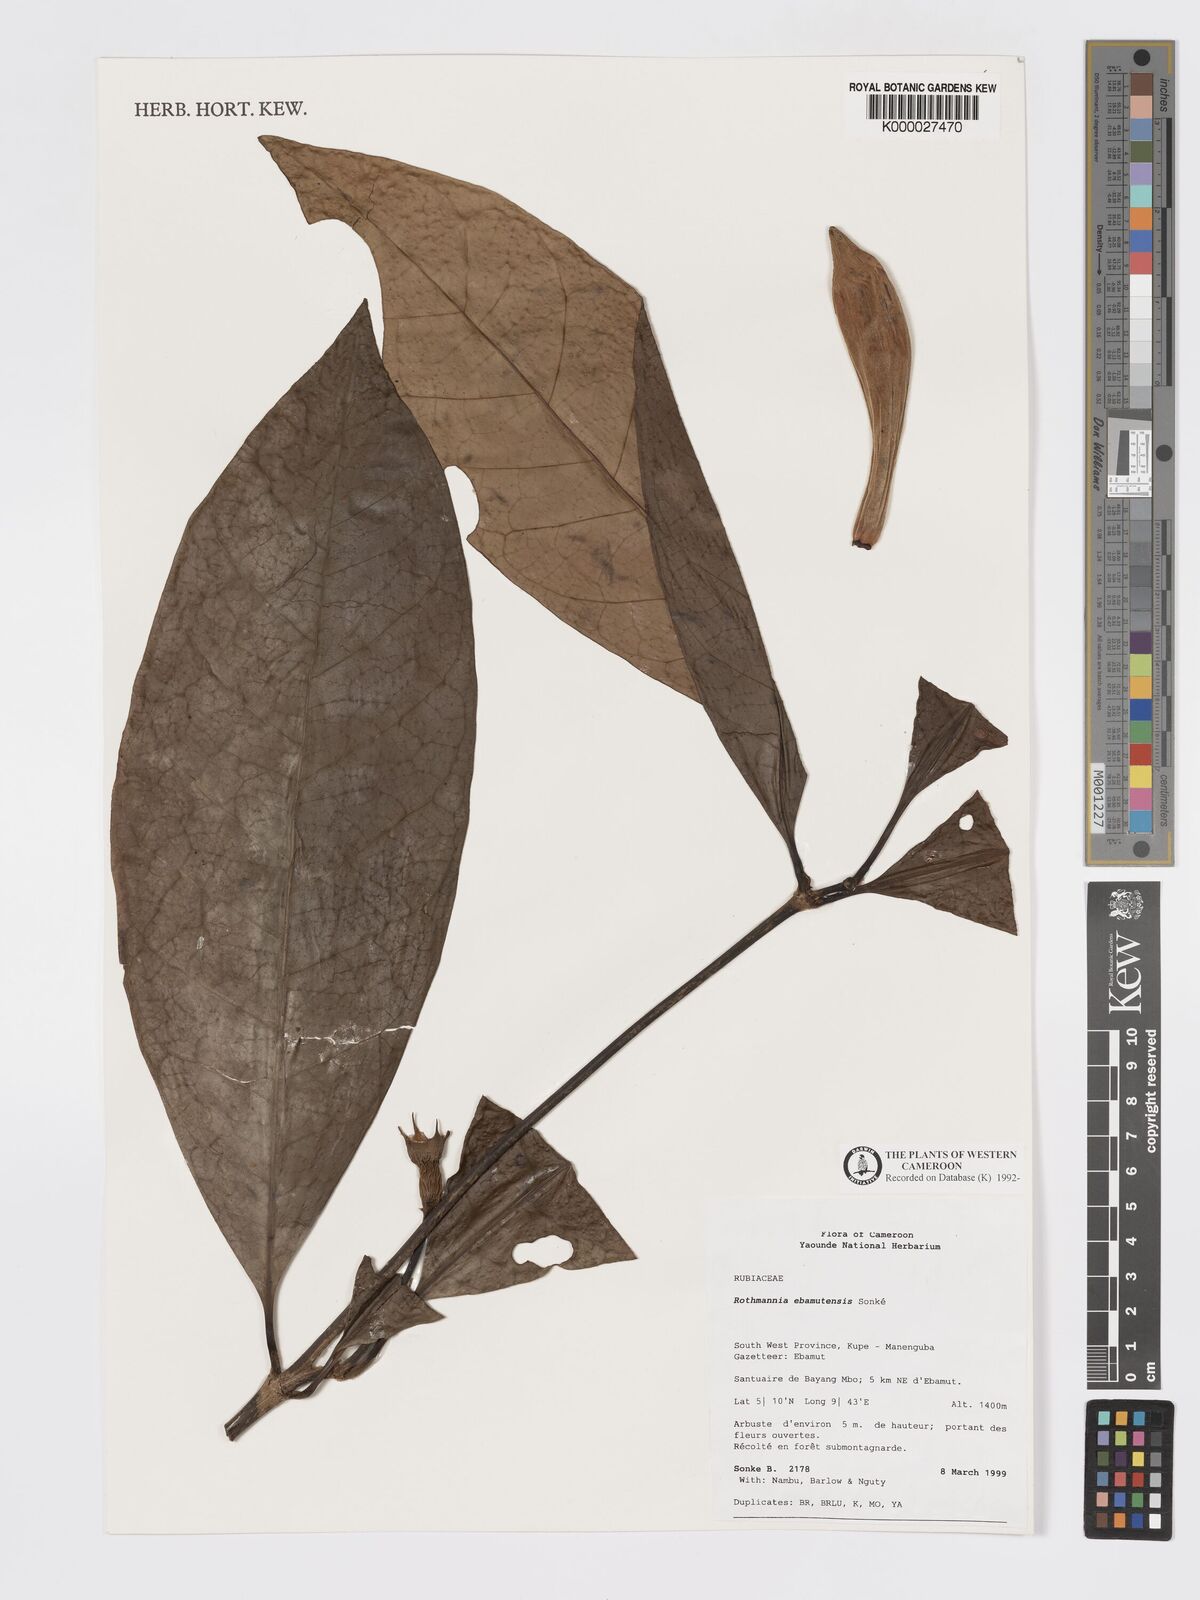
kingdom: Plantae
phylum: Tracheophyta
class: Magnoliopsida
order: Gentianales
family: Rubiaceae
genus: Rothmannia
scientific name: Rothmannia
